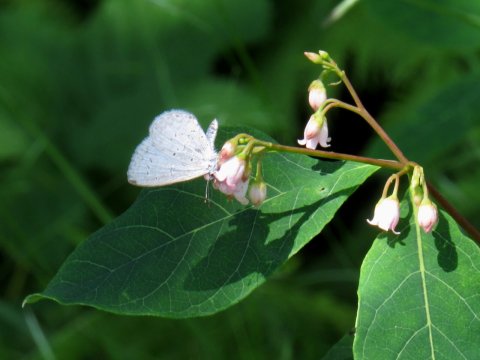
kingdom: Animalia
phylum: Arthropoda
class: Insecta
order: Lepidoptera
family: Lycaenidae
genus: Celastrina
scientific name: Celastrina
